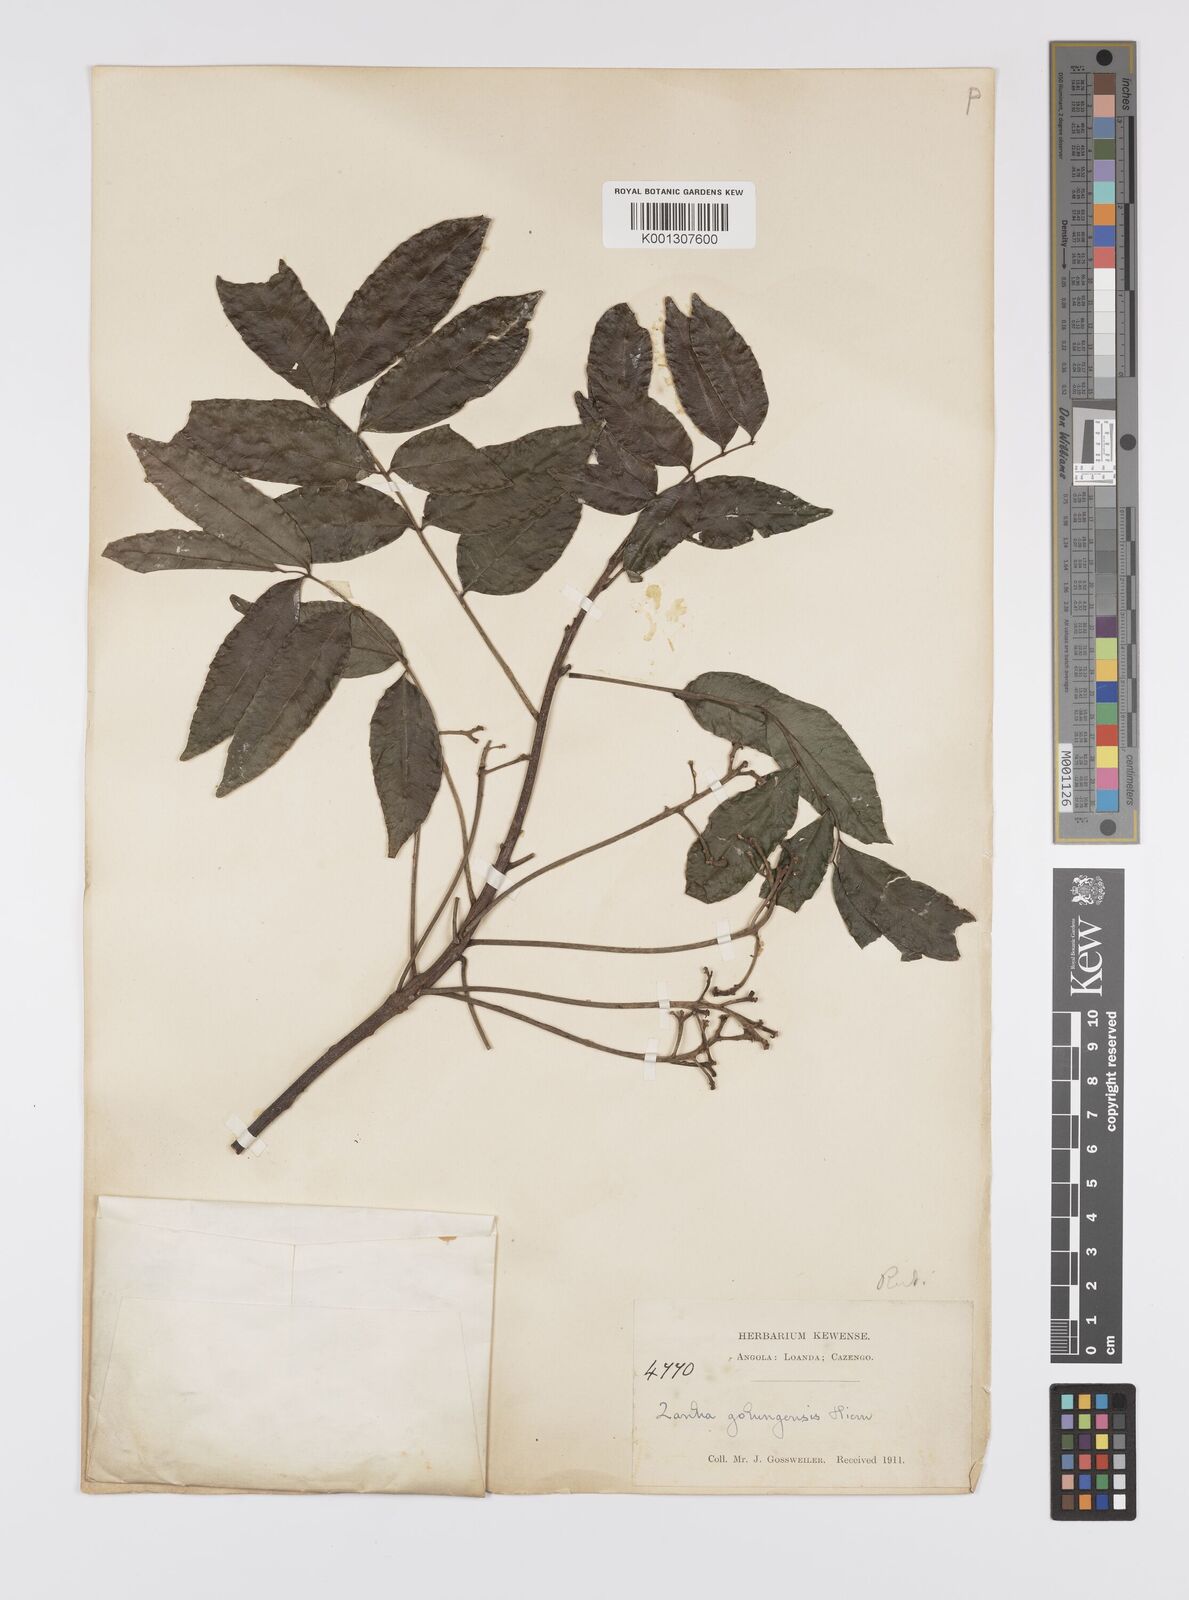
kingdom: Plantae
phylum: Tracheophyta
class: Magnoliopsida
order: Sapindales
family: Sapindaceae
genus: Zanha
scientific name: Zanha golungensis
